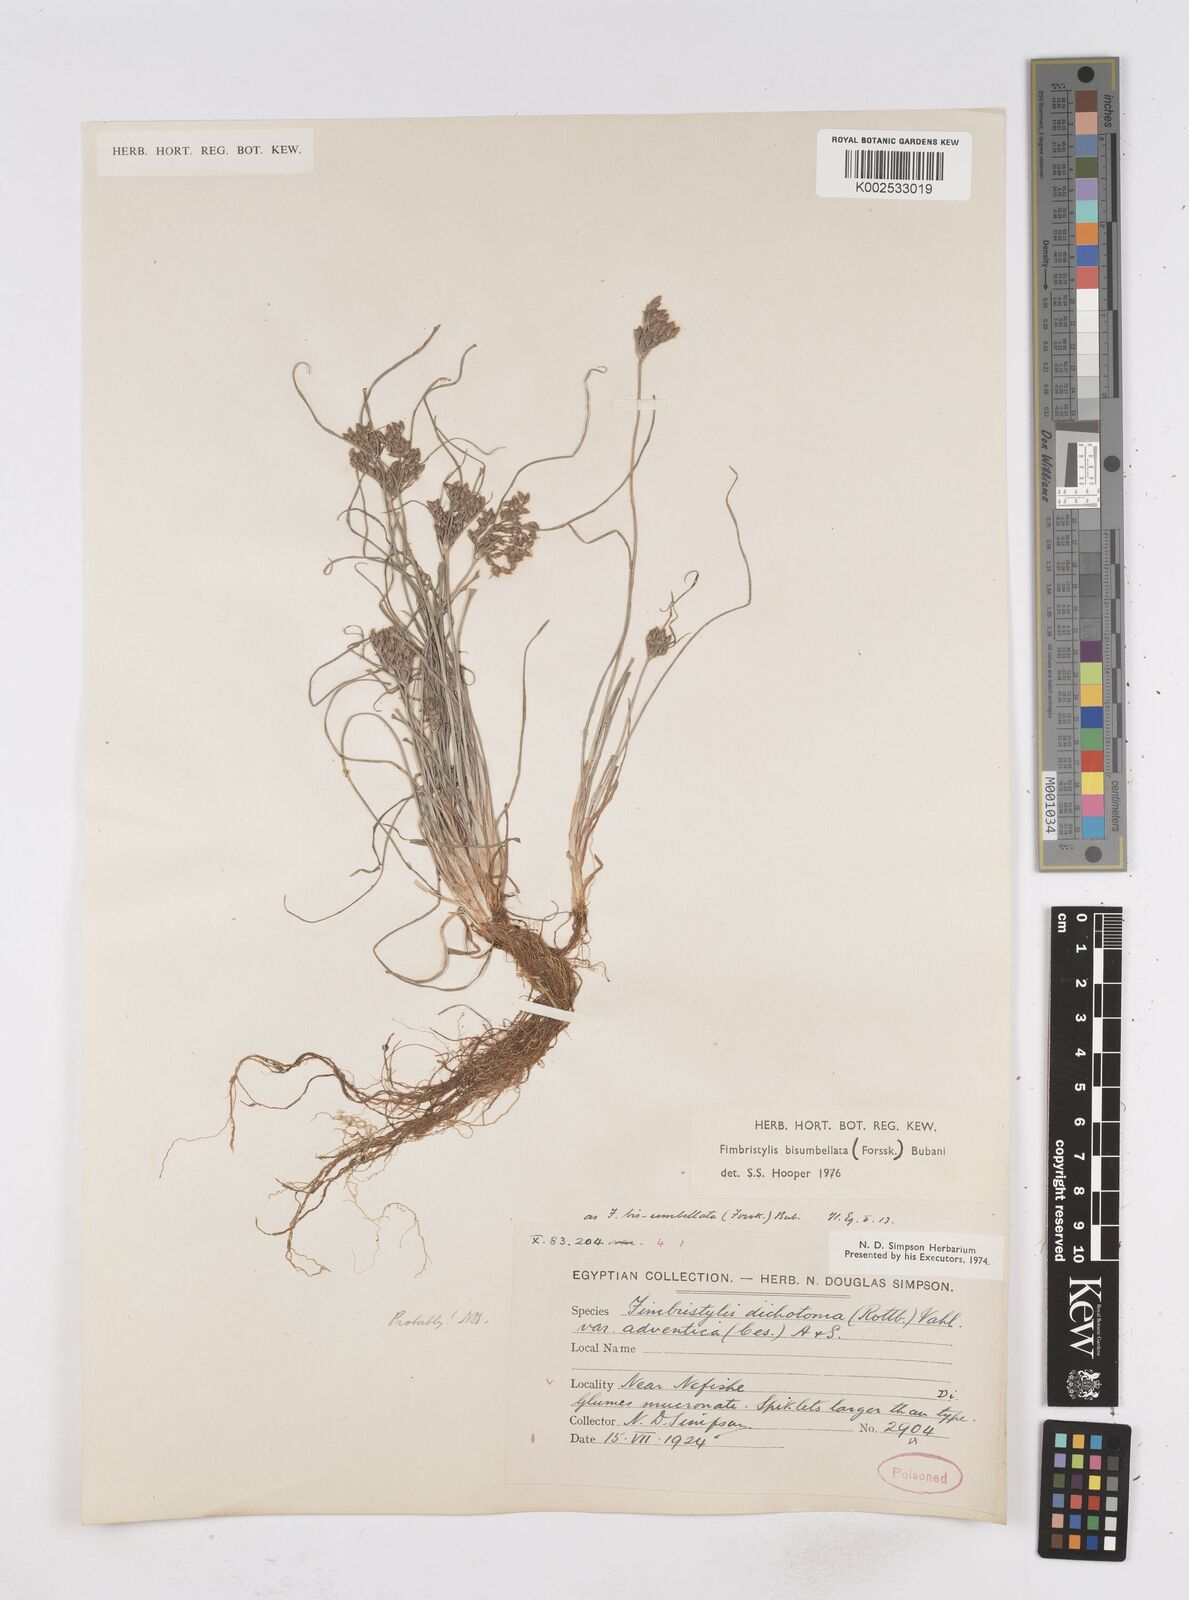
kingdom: Plantae
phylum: Tracheophyta
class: Liliopsida
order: Poales
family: Cyperaceae
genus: Fimbristylis
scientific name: Fimbristylis bisumbellata
